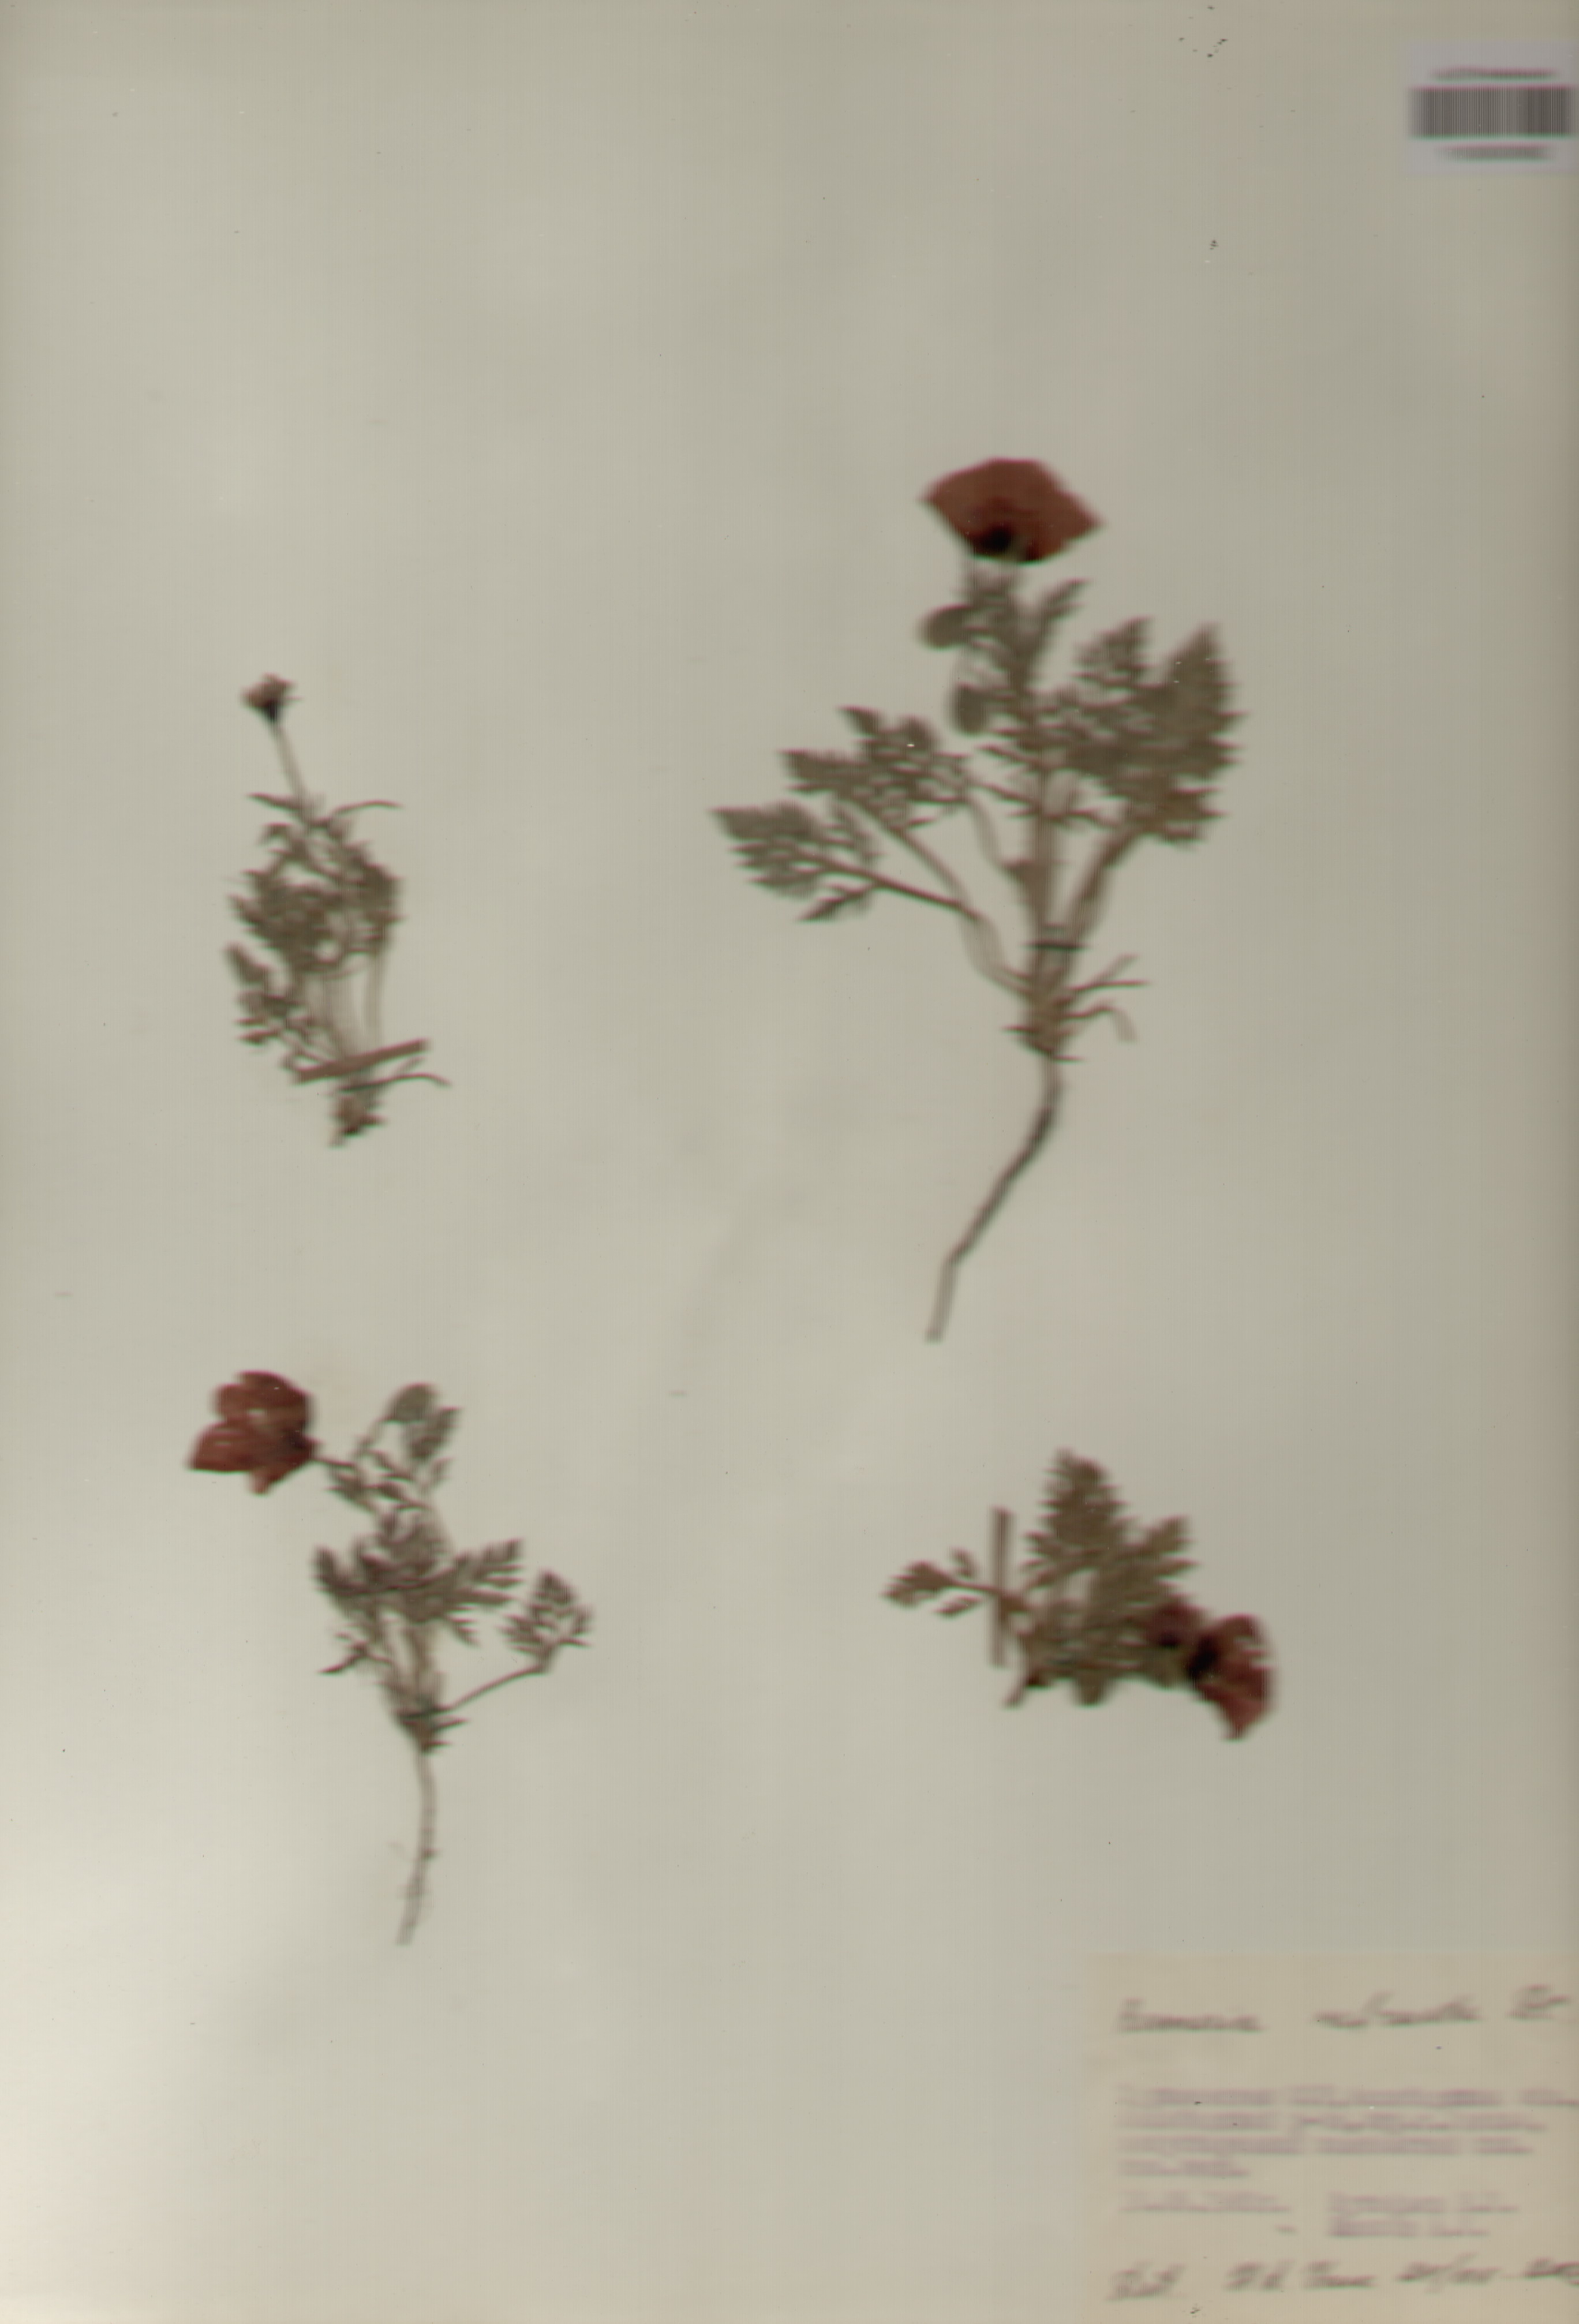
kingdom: Plantae
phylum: Tracheophyta
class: Magnoliopsida
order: Ranunculales
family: Papaveraceae
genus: Roemeria
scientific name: Roemeria refracta
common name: Spotted asian poppy
